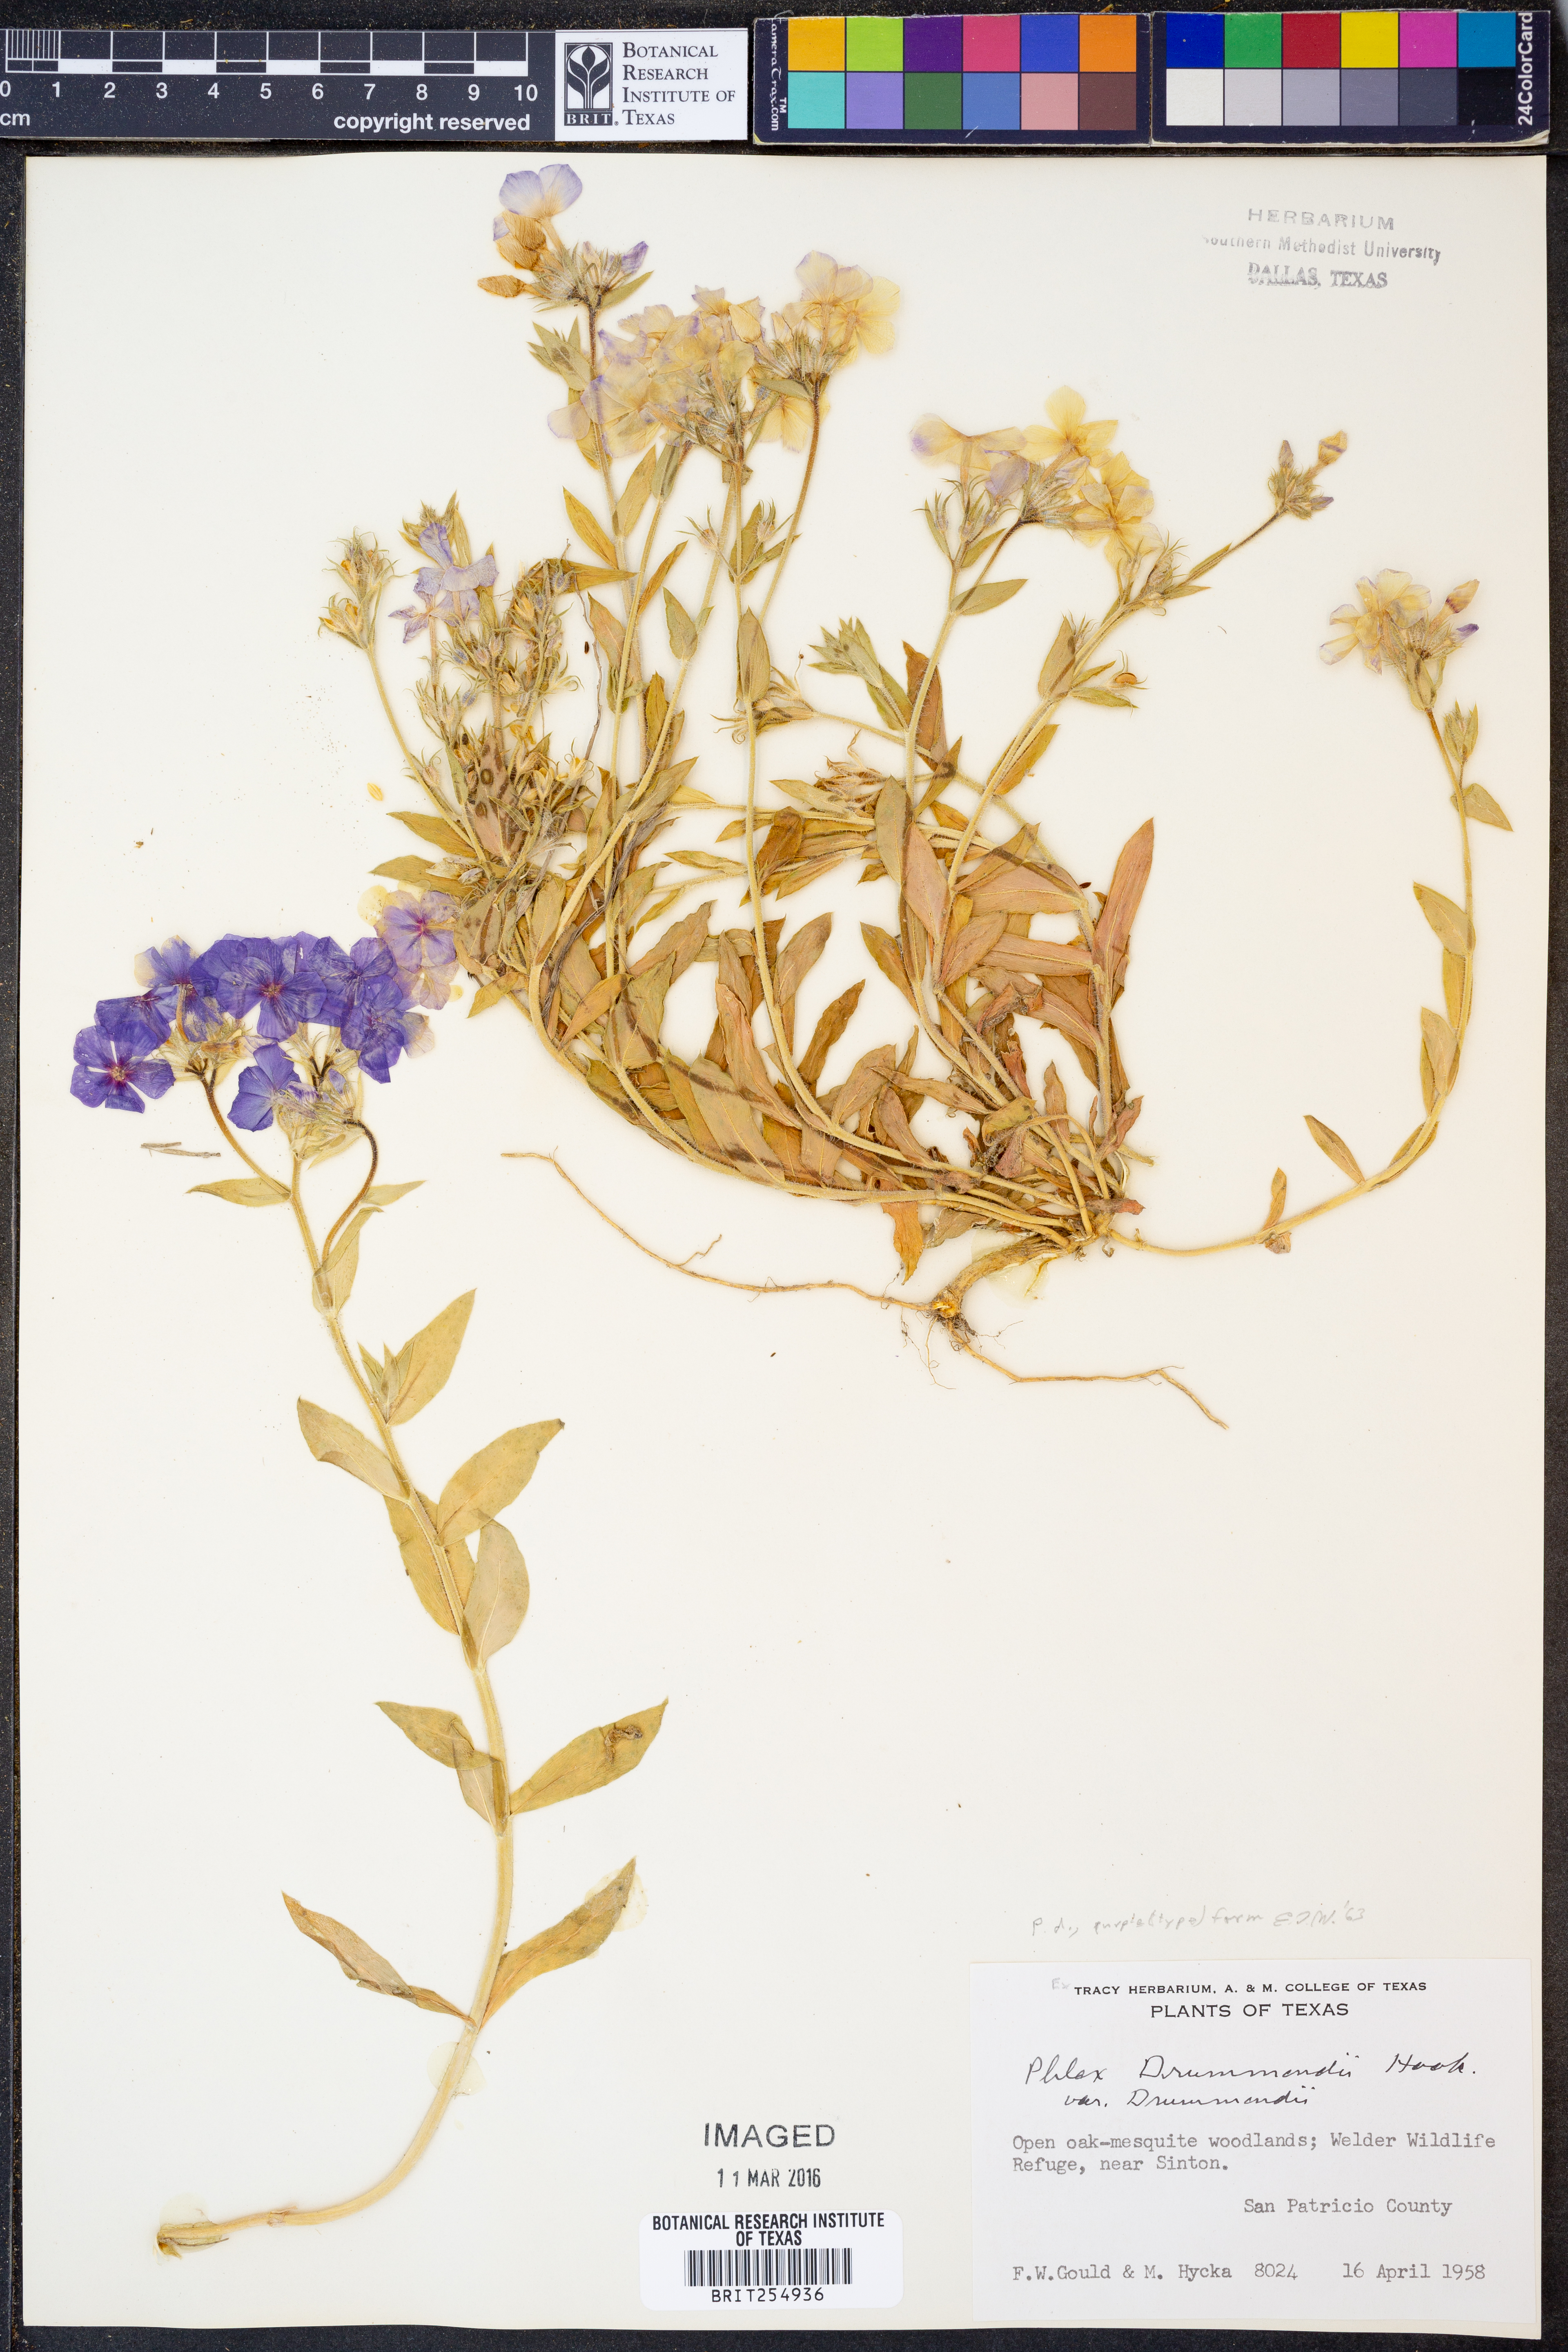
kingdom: Plantae
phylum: Tracheophyta
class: Magnoliopsida
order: Ericales
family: Polemoniaceae
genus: Phlox
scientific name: Phlox drummondii
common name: Drummond's phlox
